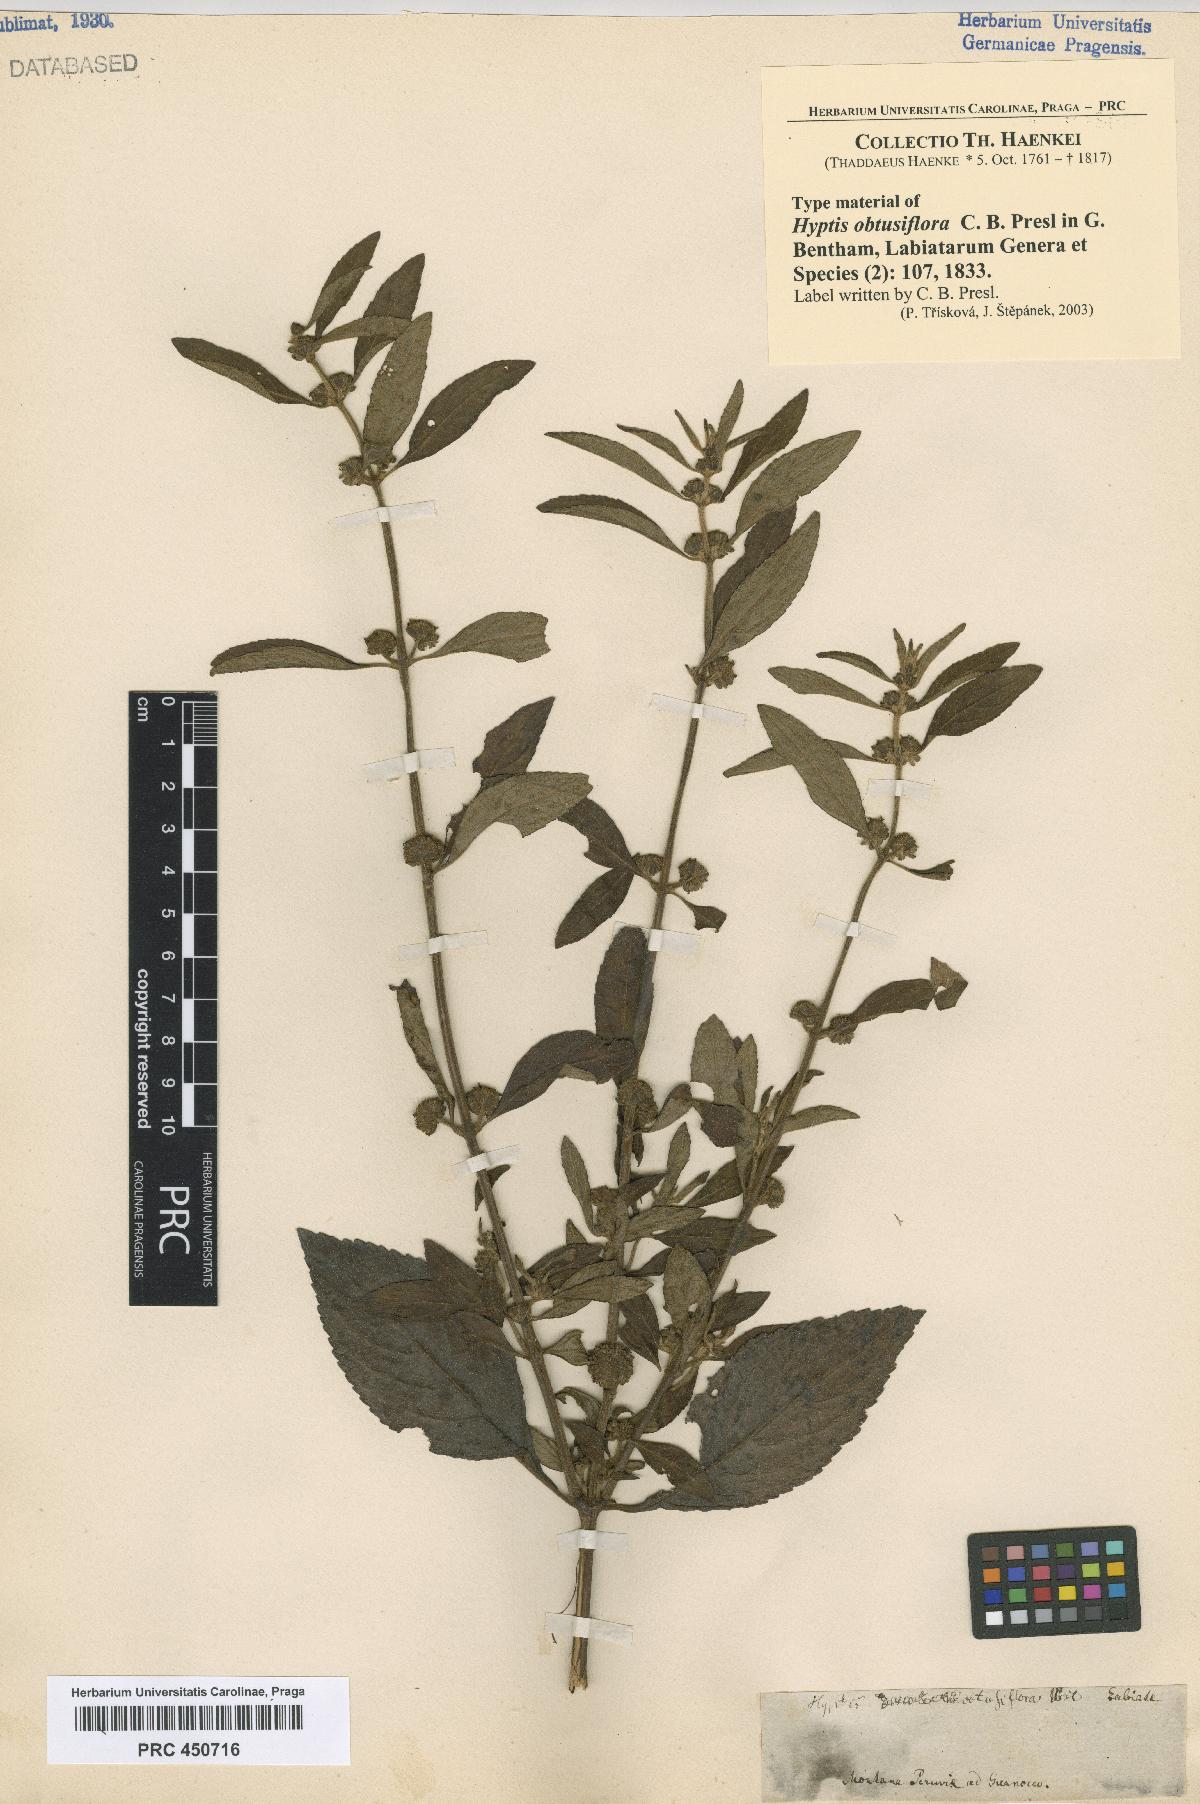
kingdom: Plantae
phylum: Tracheophyta
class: Magnoliopsida
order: Lamiales
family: Lamiaceae
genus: Hyptis
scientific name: Hyptis obtusiflora
